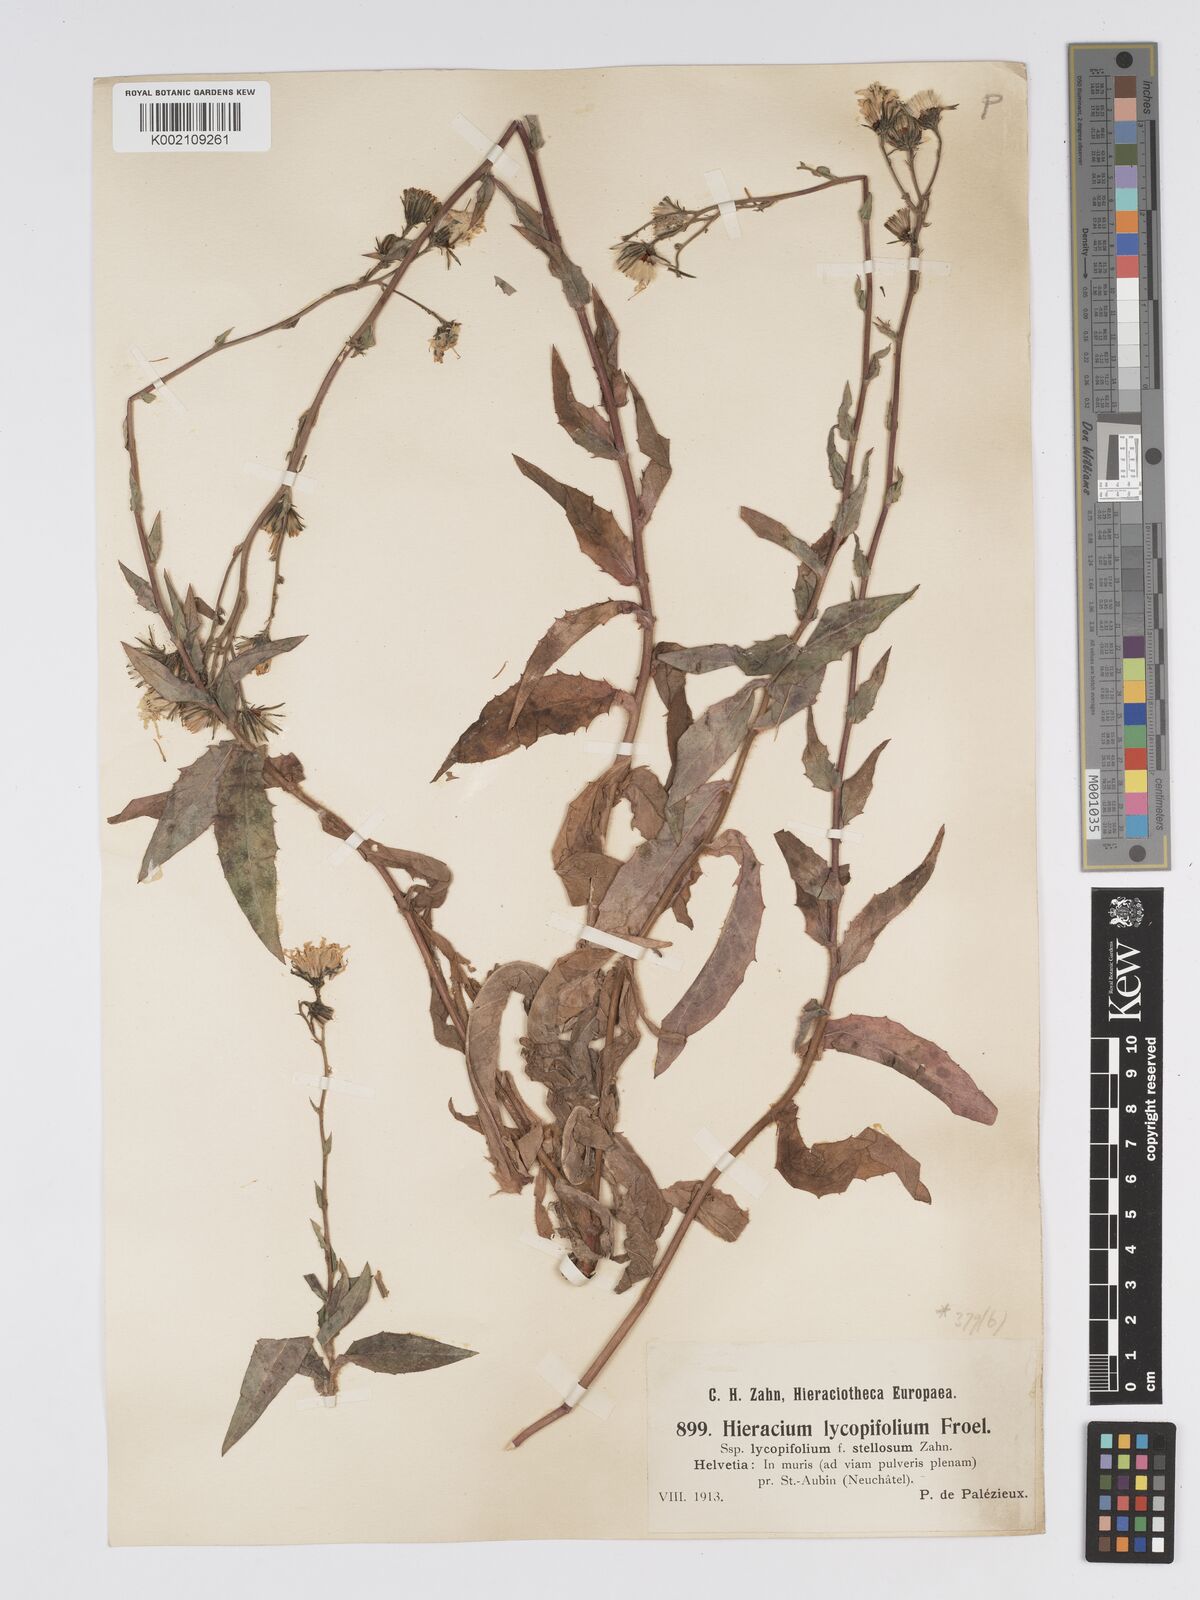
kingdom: Plantae
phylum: Tracheophyta
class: Magnoliopsida
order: Asterales
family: Asteraceae
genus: Hieracium
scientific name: Hieracium lycopifolium
